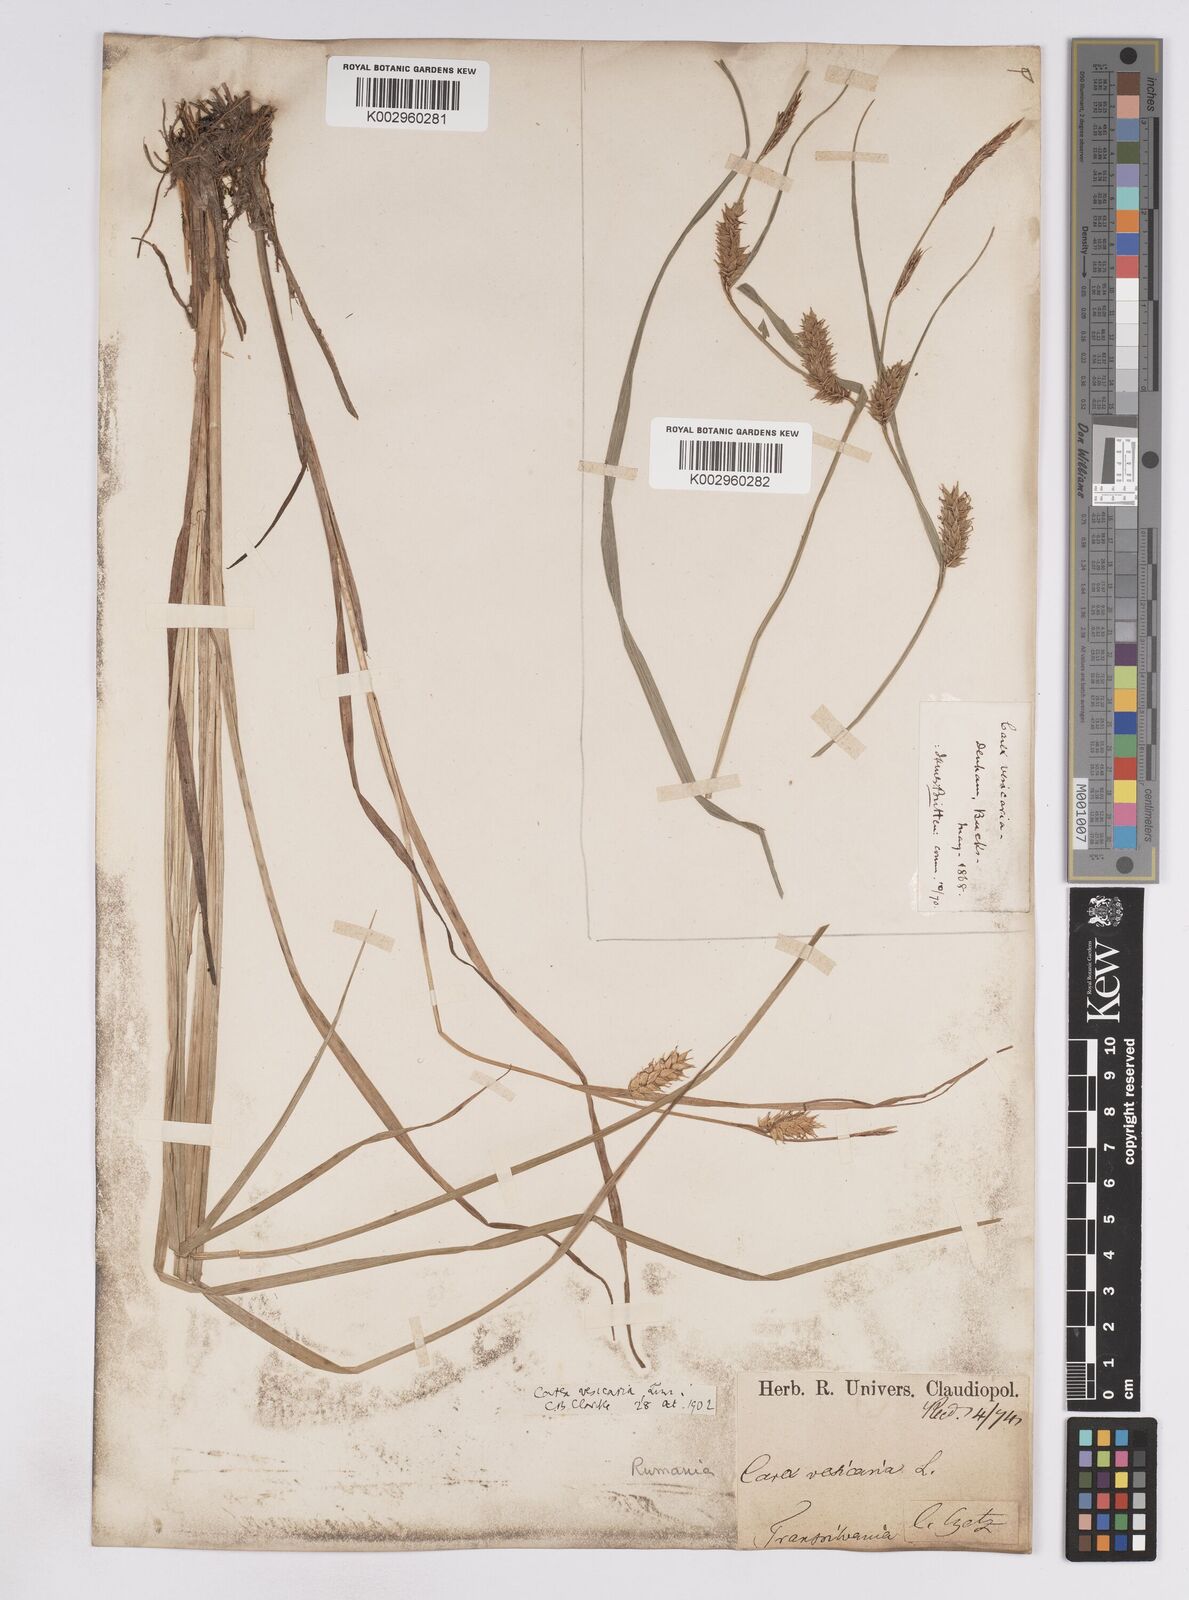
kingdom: Plantae
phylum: Tracheophyta
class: Liliopsida
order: Poales
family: Cyperaceae
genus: Carex
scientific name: Carex vesicaria
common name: Bladder-sedge
